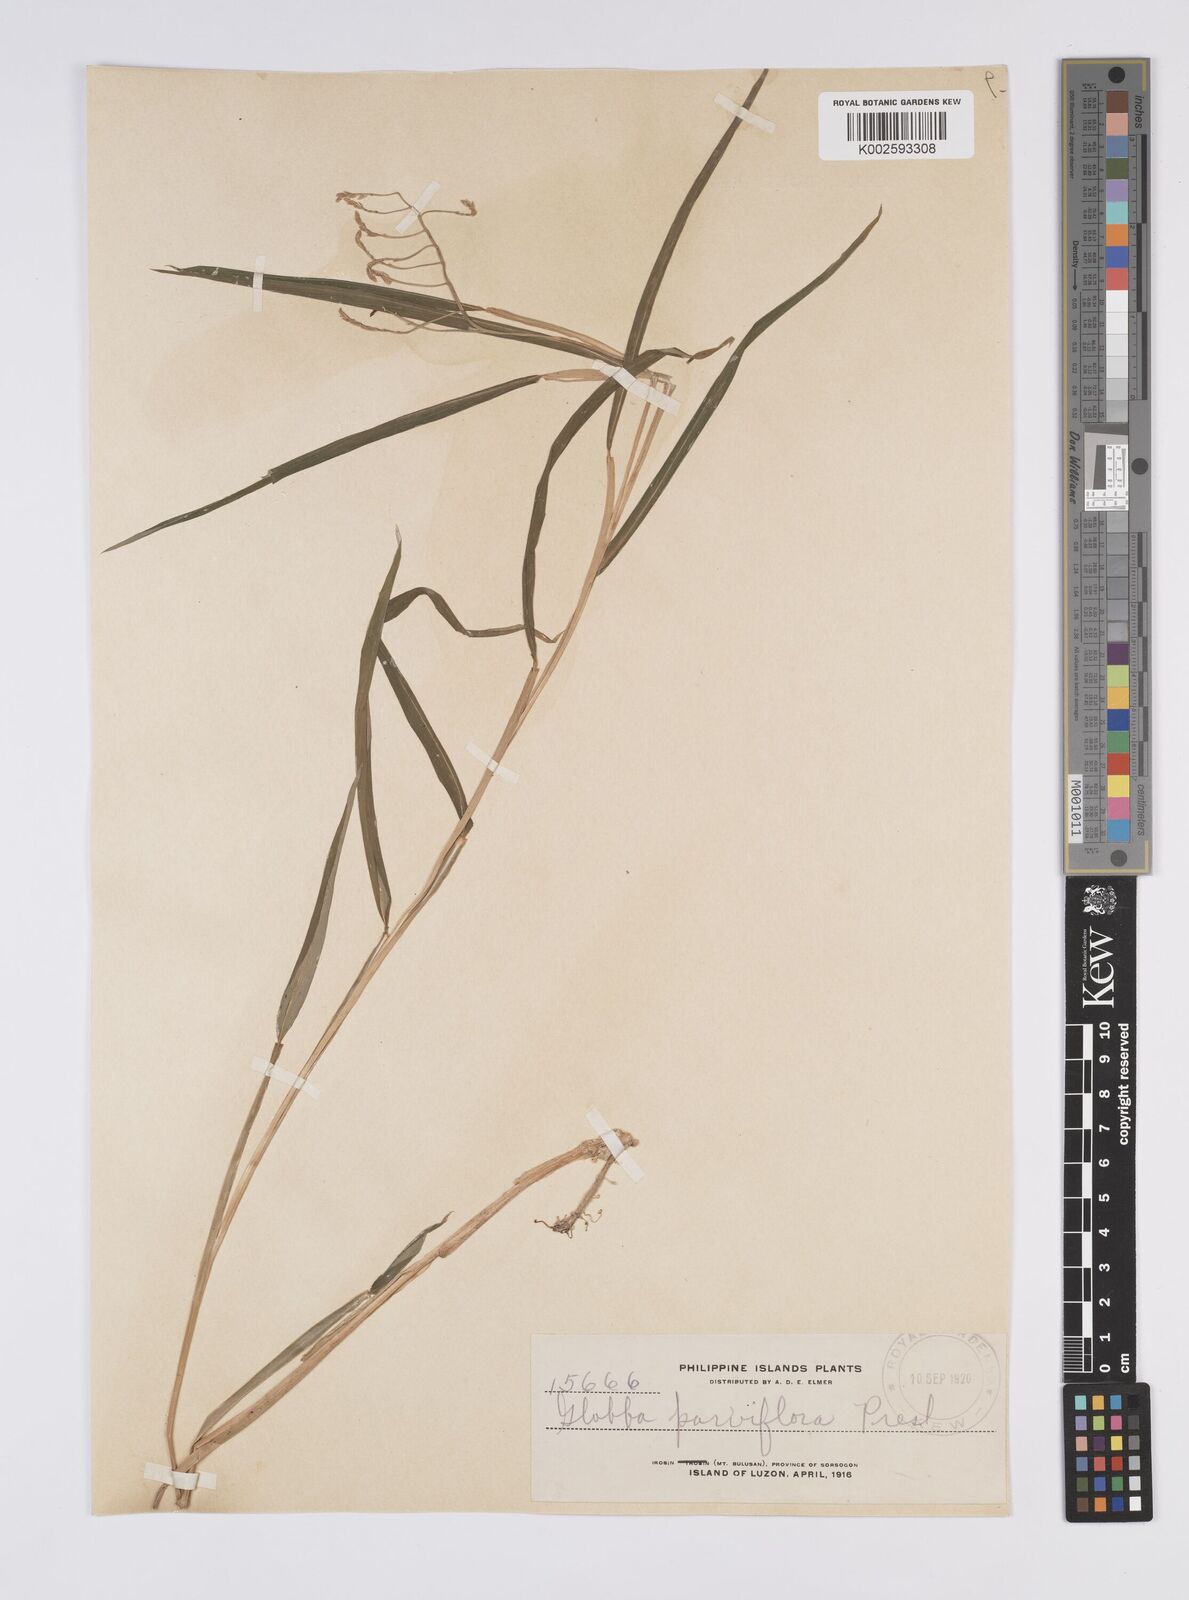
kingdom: Plantae
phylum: Tracheophyta
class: Liliopsida
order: Zingiberales
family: Zingiberaceae
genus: Globba
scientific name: Globba parviflora
